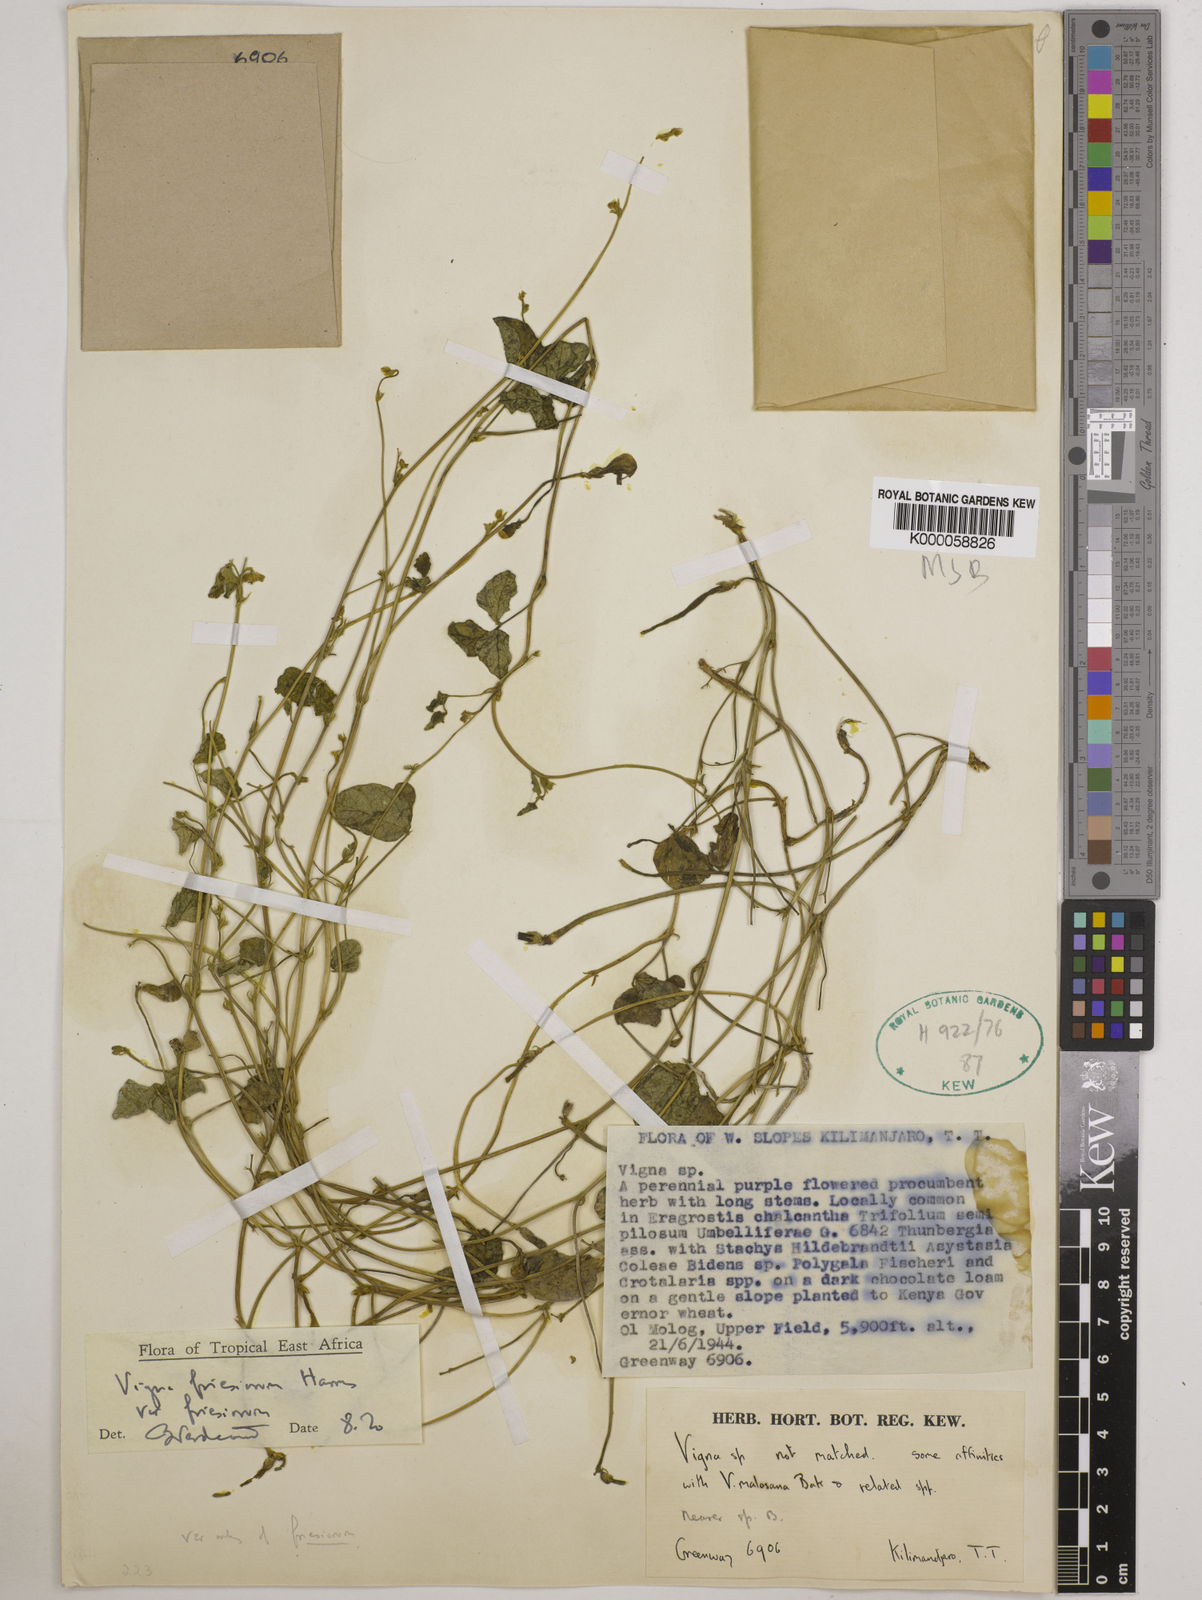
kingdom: Plantae
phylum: Tracheophyta
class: Magnoliopsida
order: Fabales
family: Fabaceae
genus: Vigna
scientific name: Vigna friesiorum
